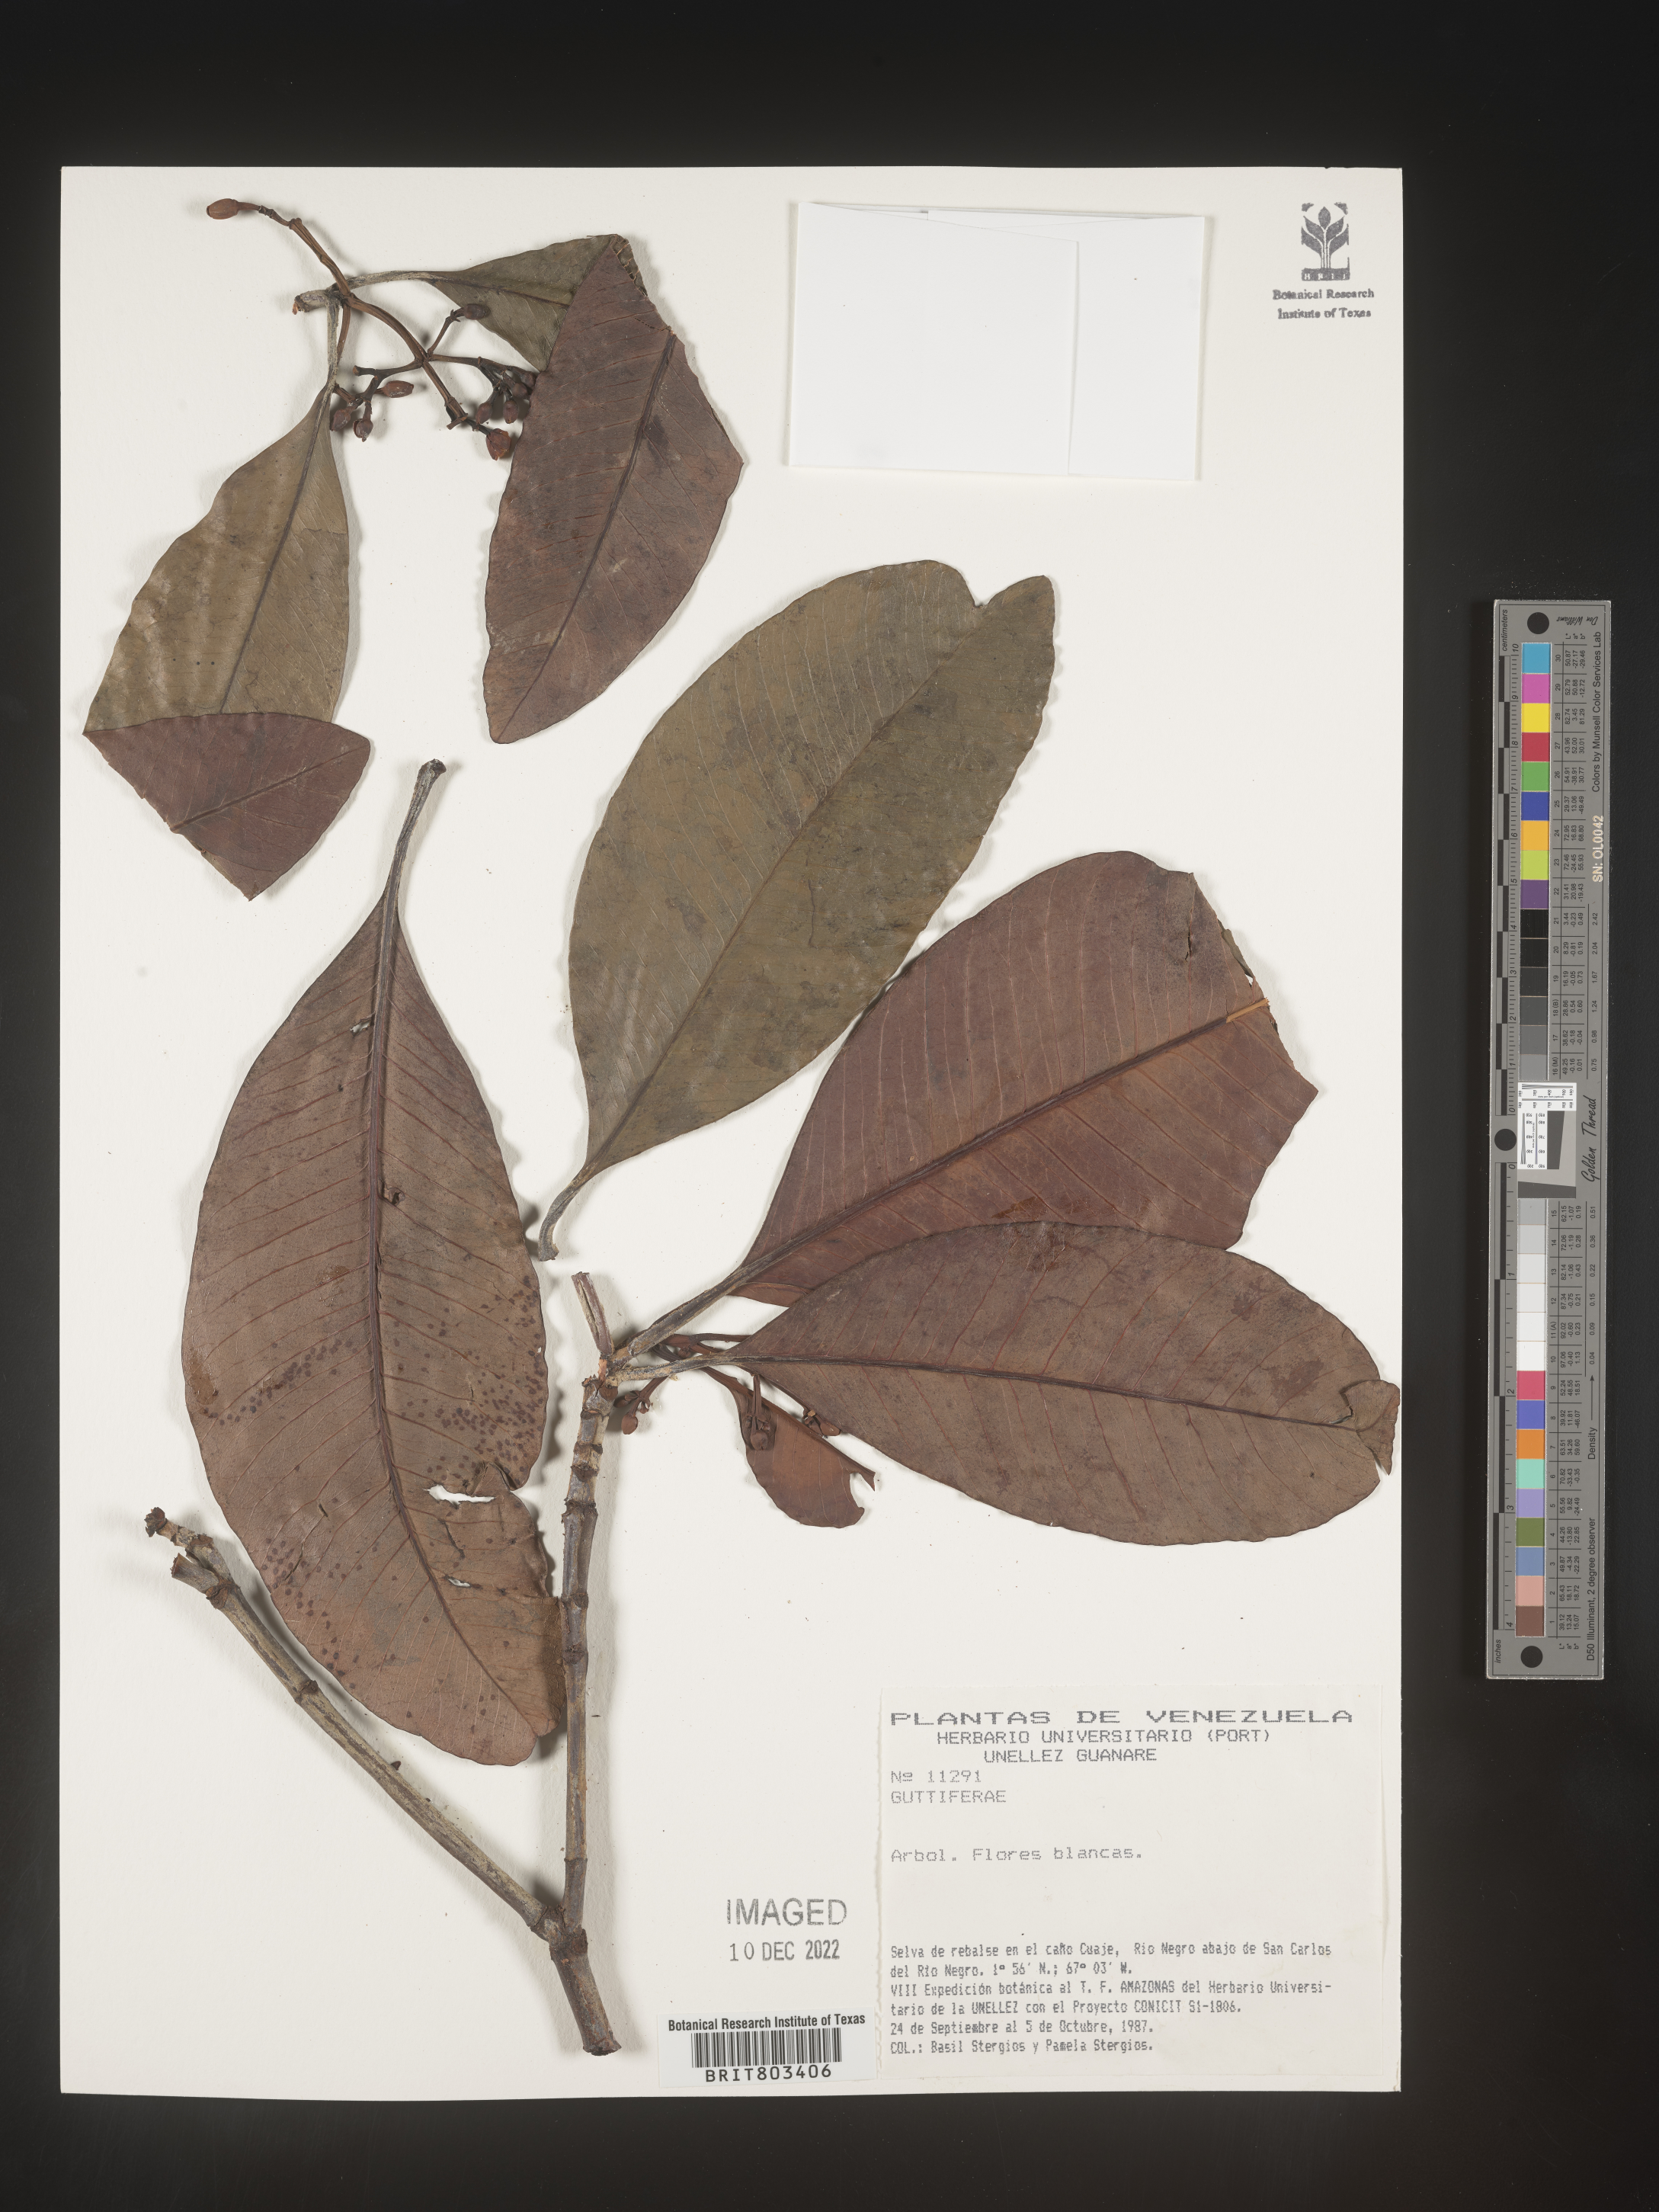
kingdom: Plantae
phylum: Tracheophyta
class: Magnoliopsida
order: Malpighiales
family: Clusiaceae
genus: Tovomita
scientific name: Tovomita
